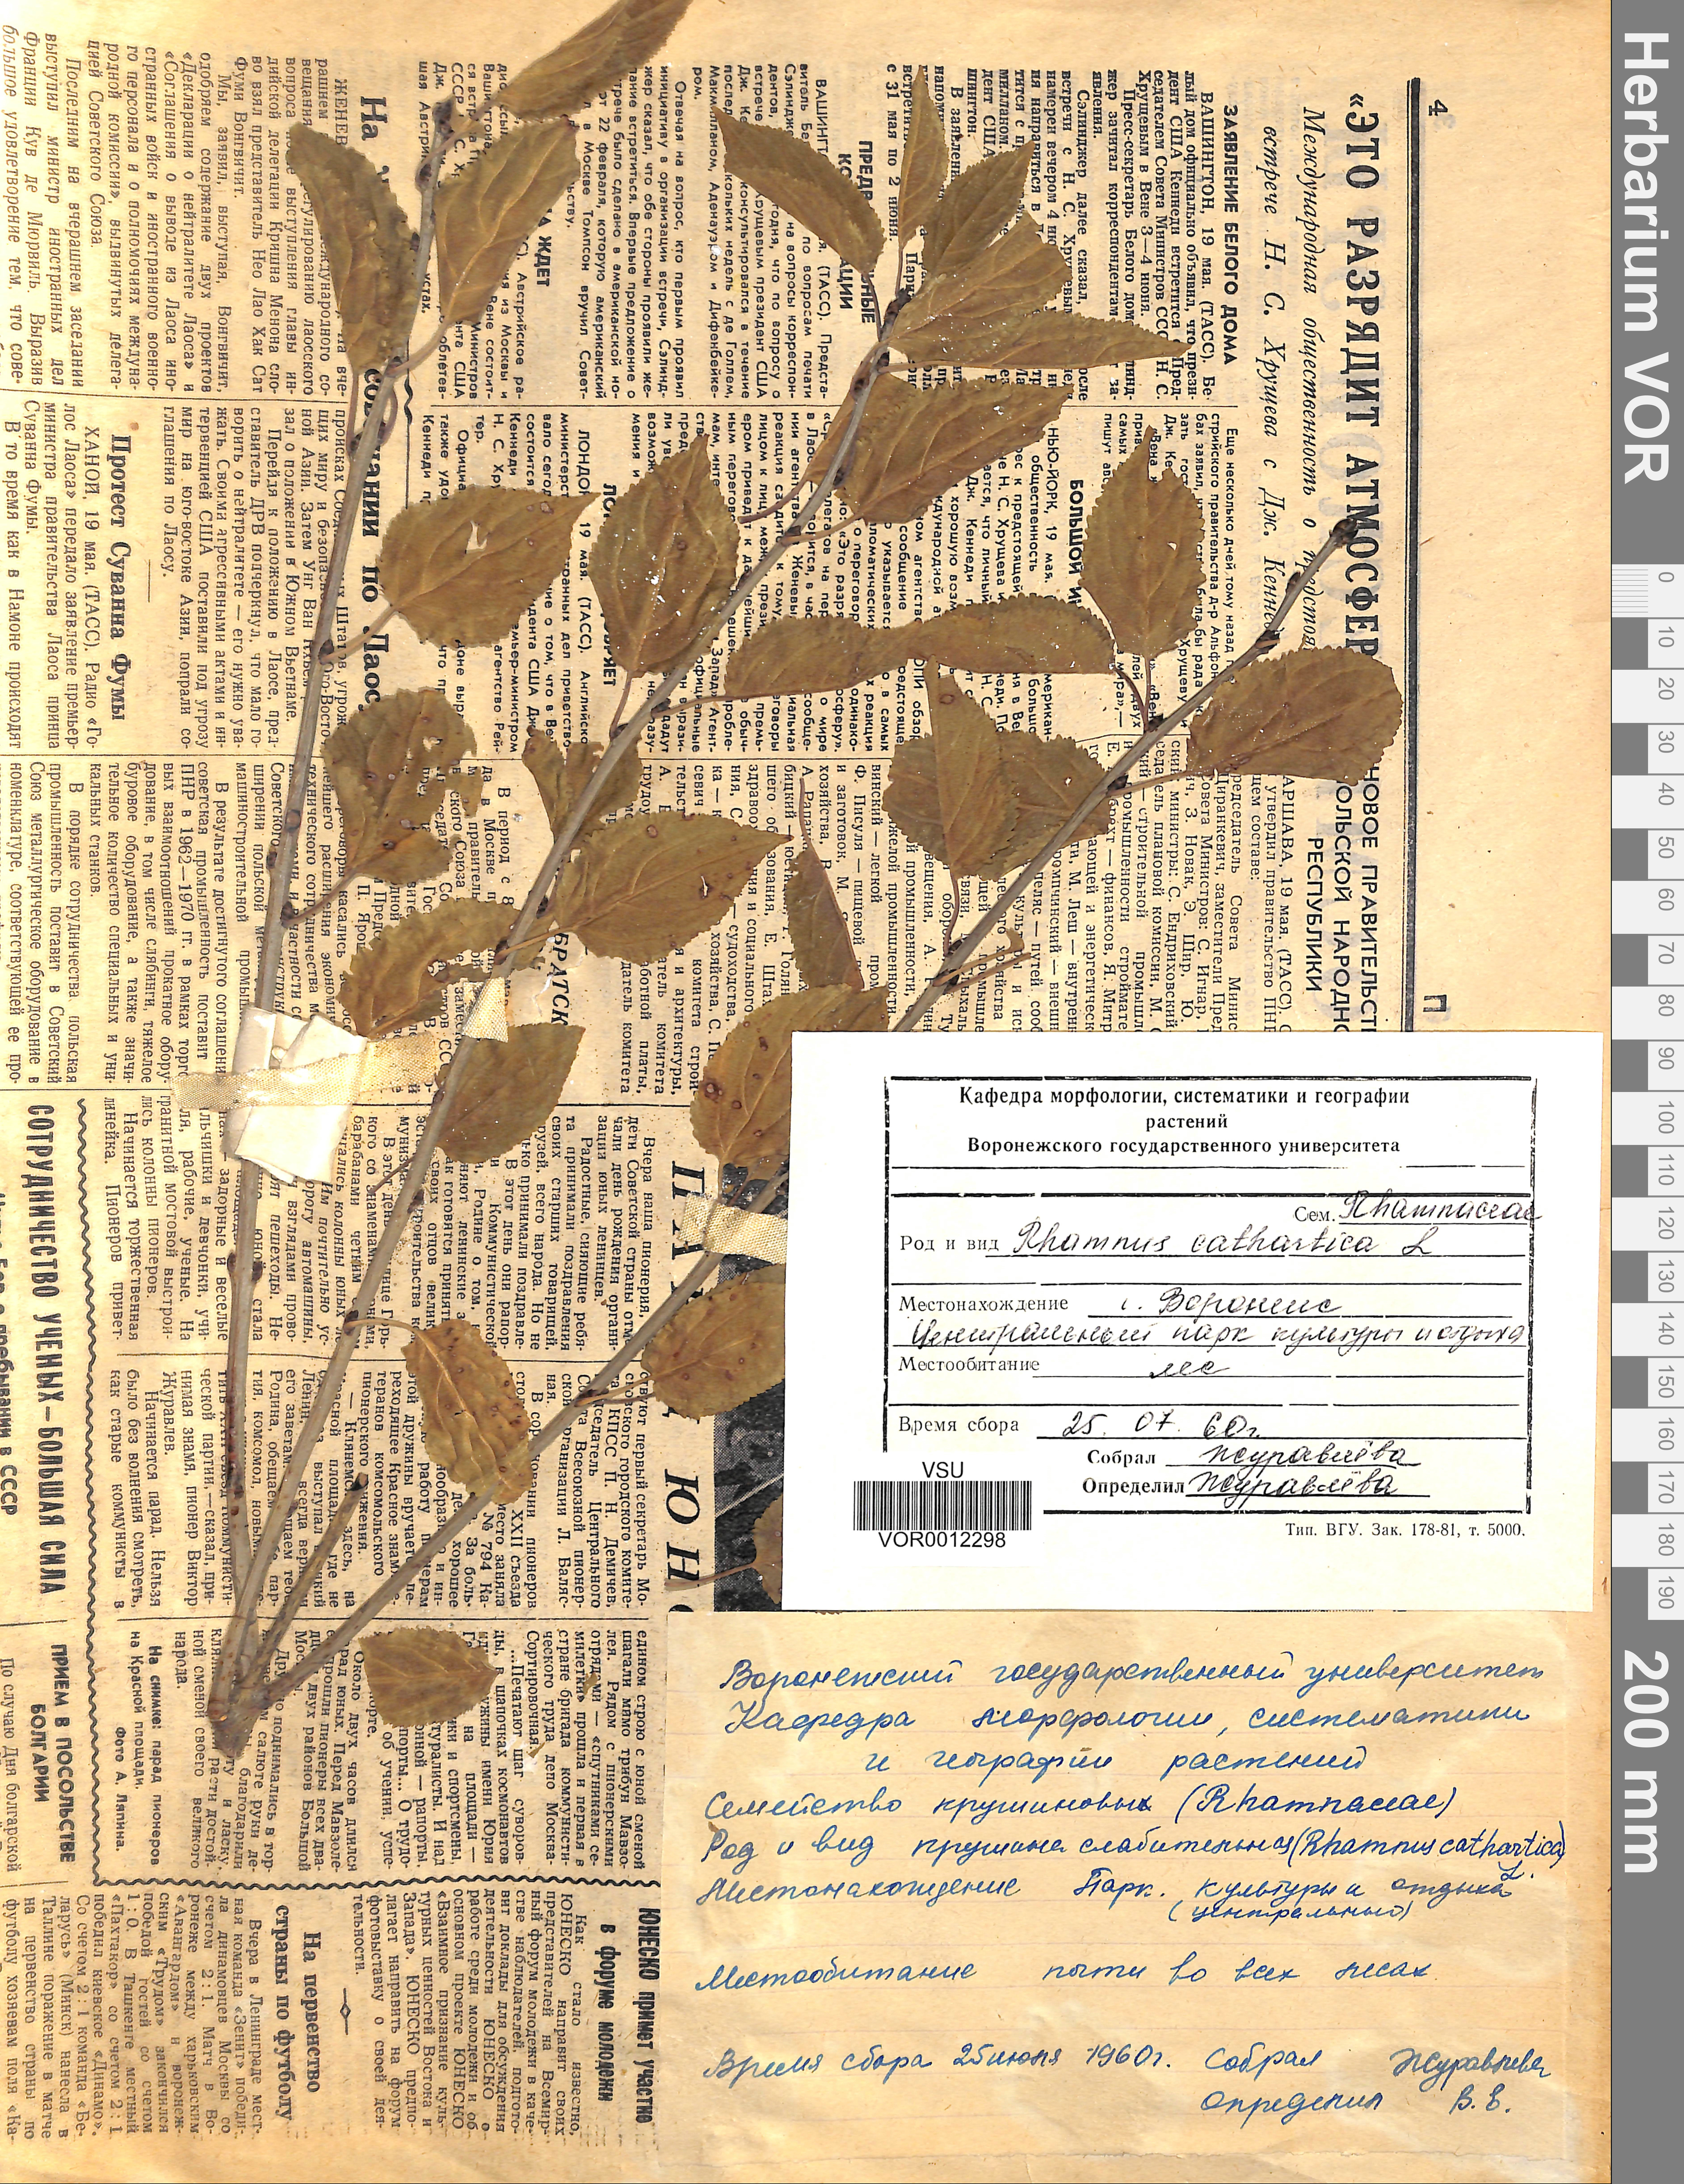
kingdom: Plantae
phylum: Tracheophyta
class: Magnoliopsida
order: Rosales
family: Rhamnaceae
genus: Rhamnus
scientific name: Rhamnus cathartica
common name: Common buckthorn
